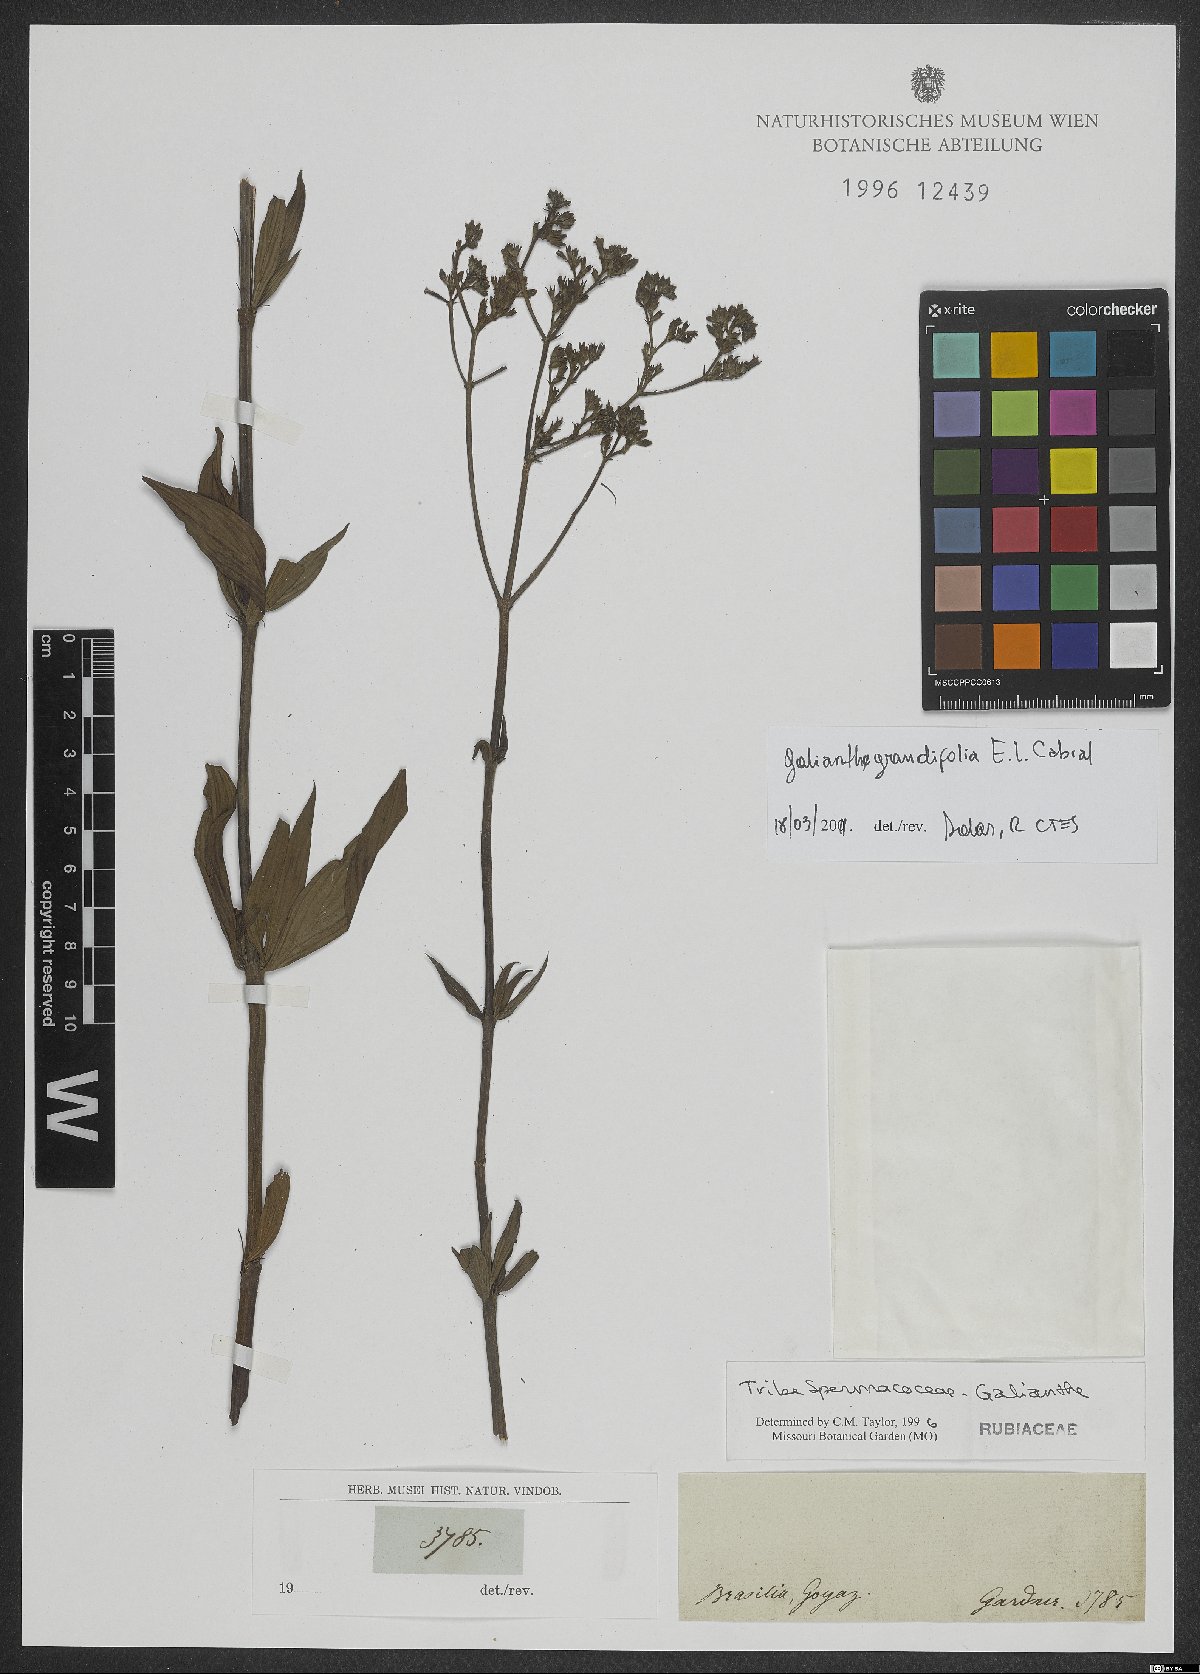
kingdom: Plantae
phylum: Tracheophyta
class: Magnoliopsida
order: Gentianales
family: Rubiaceae
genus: Galianthe
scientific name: Galianthe grandifolia
